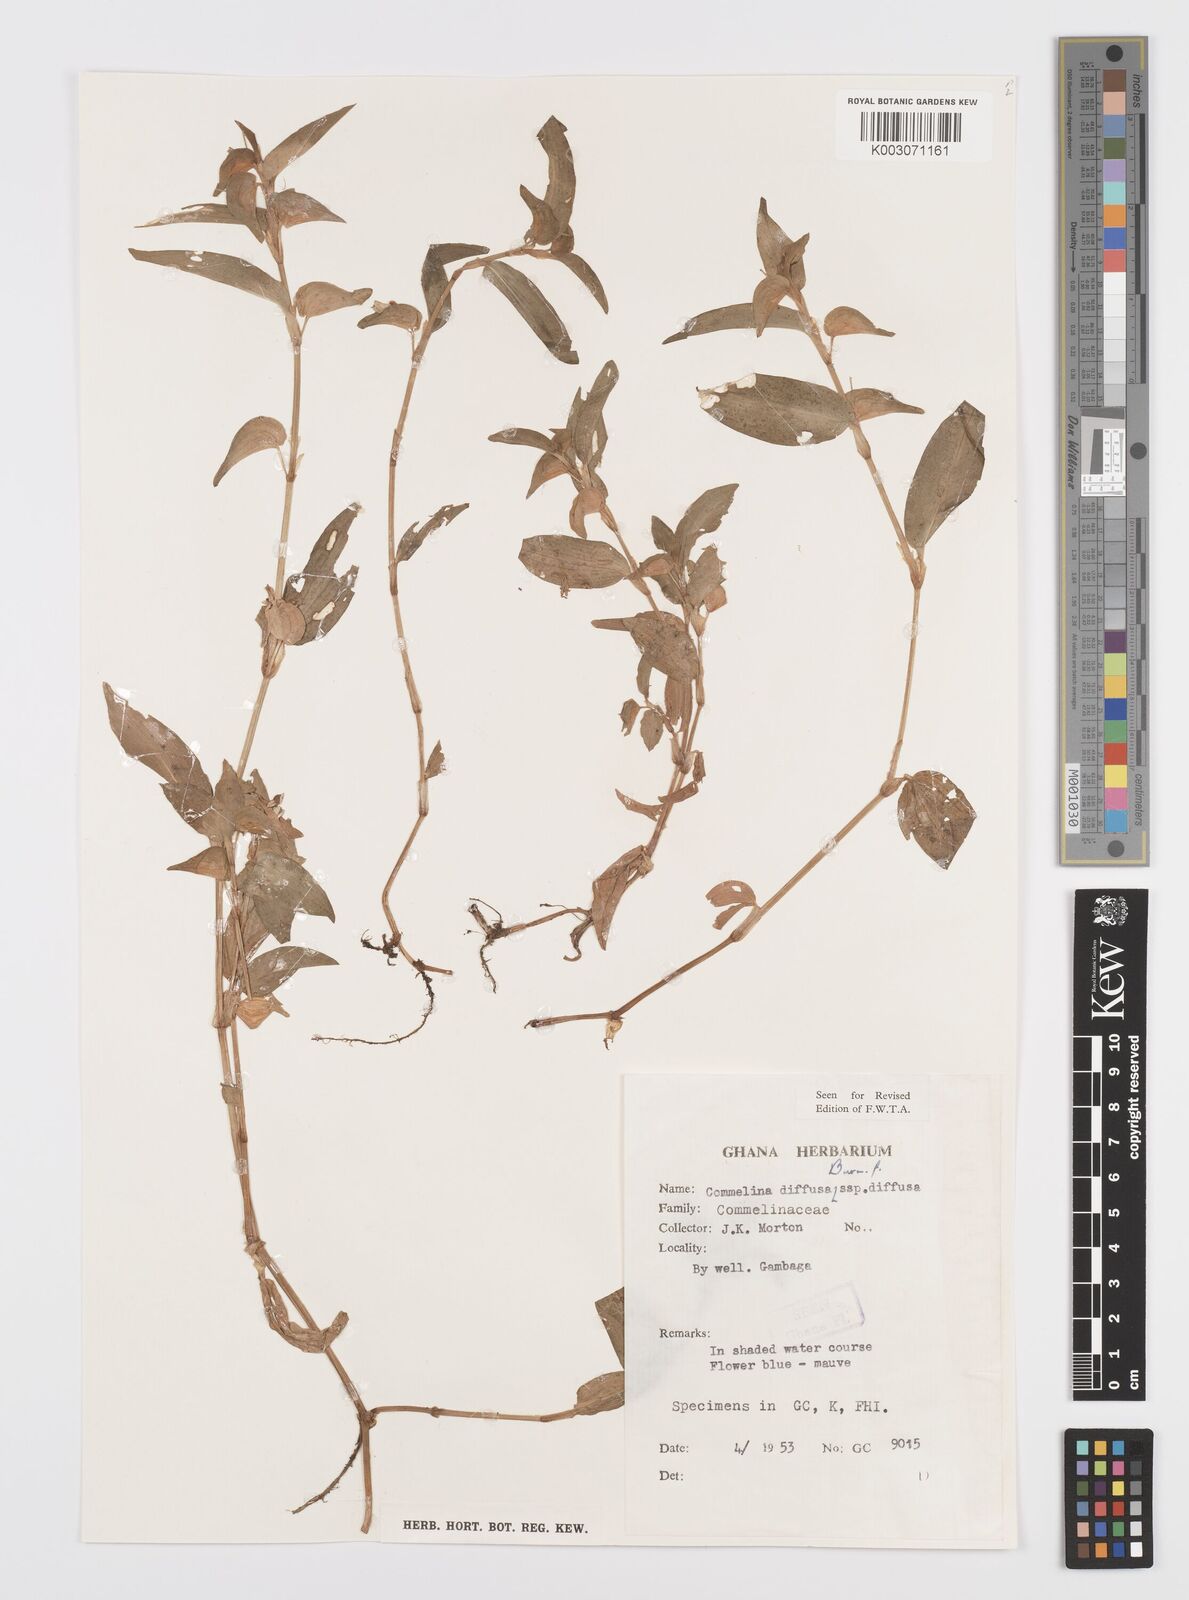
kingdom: Plantae
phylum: Tracheophyta
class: Liliopsida
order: Commelinales
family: Commelinaceae
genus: Commelina
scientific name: Commelina diffusa
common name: Climbing dayflower
